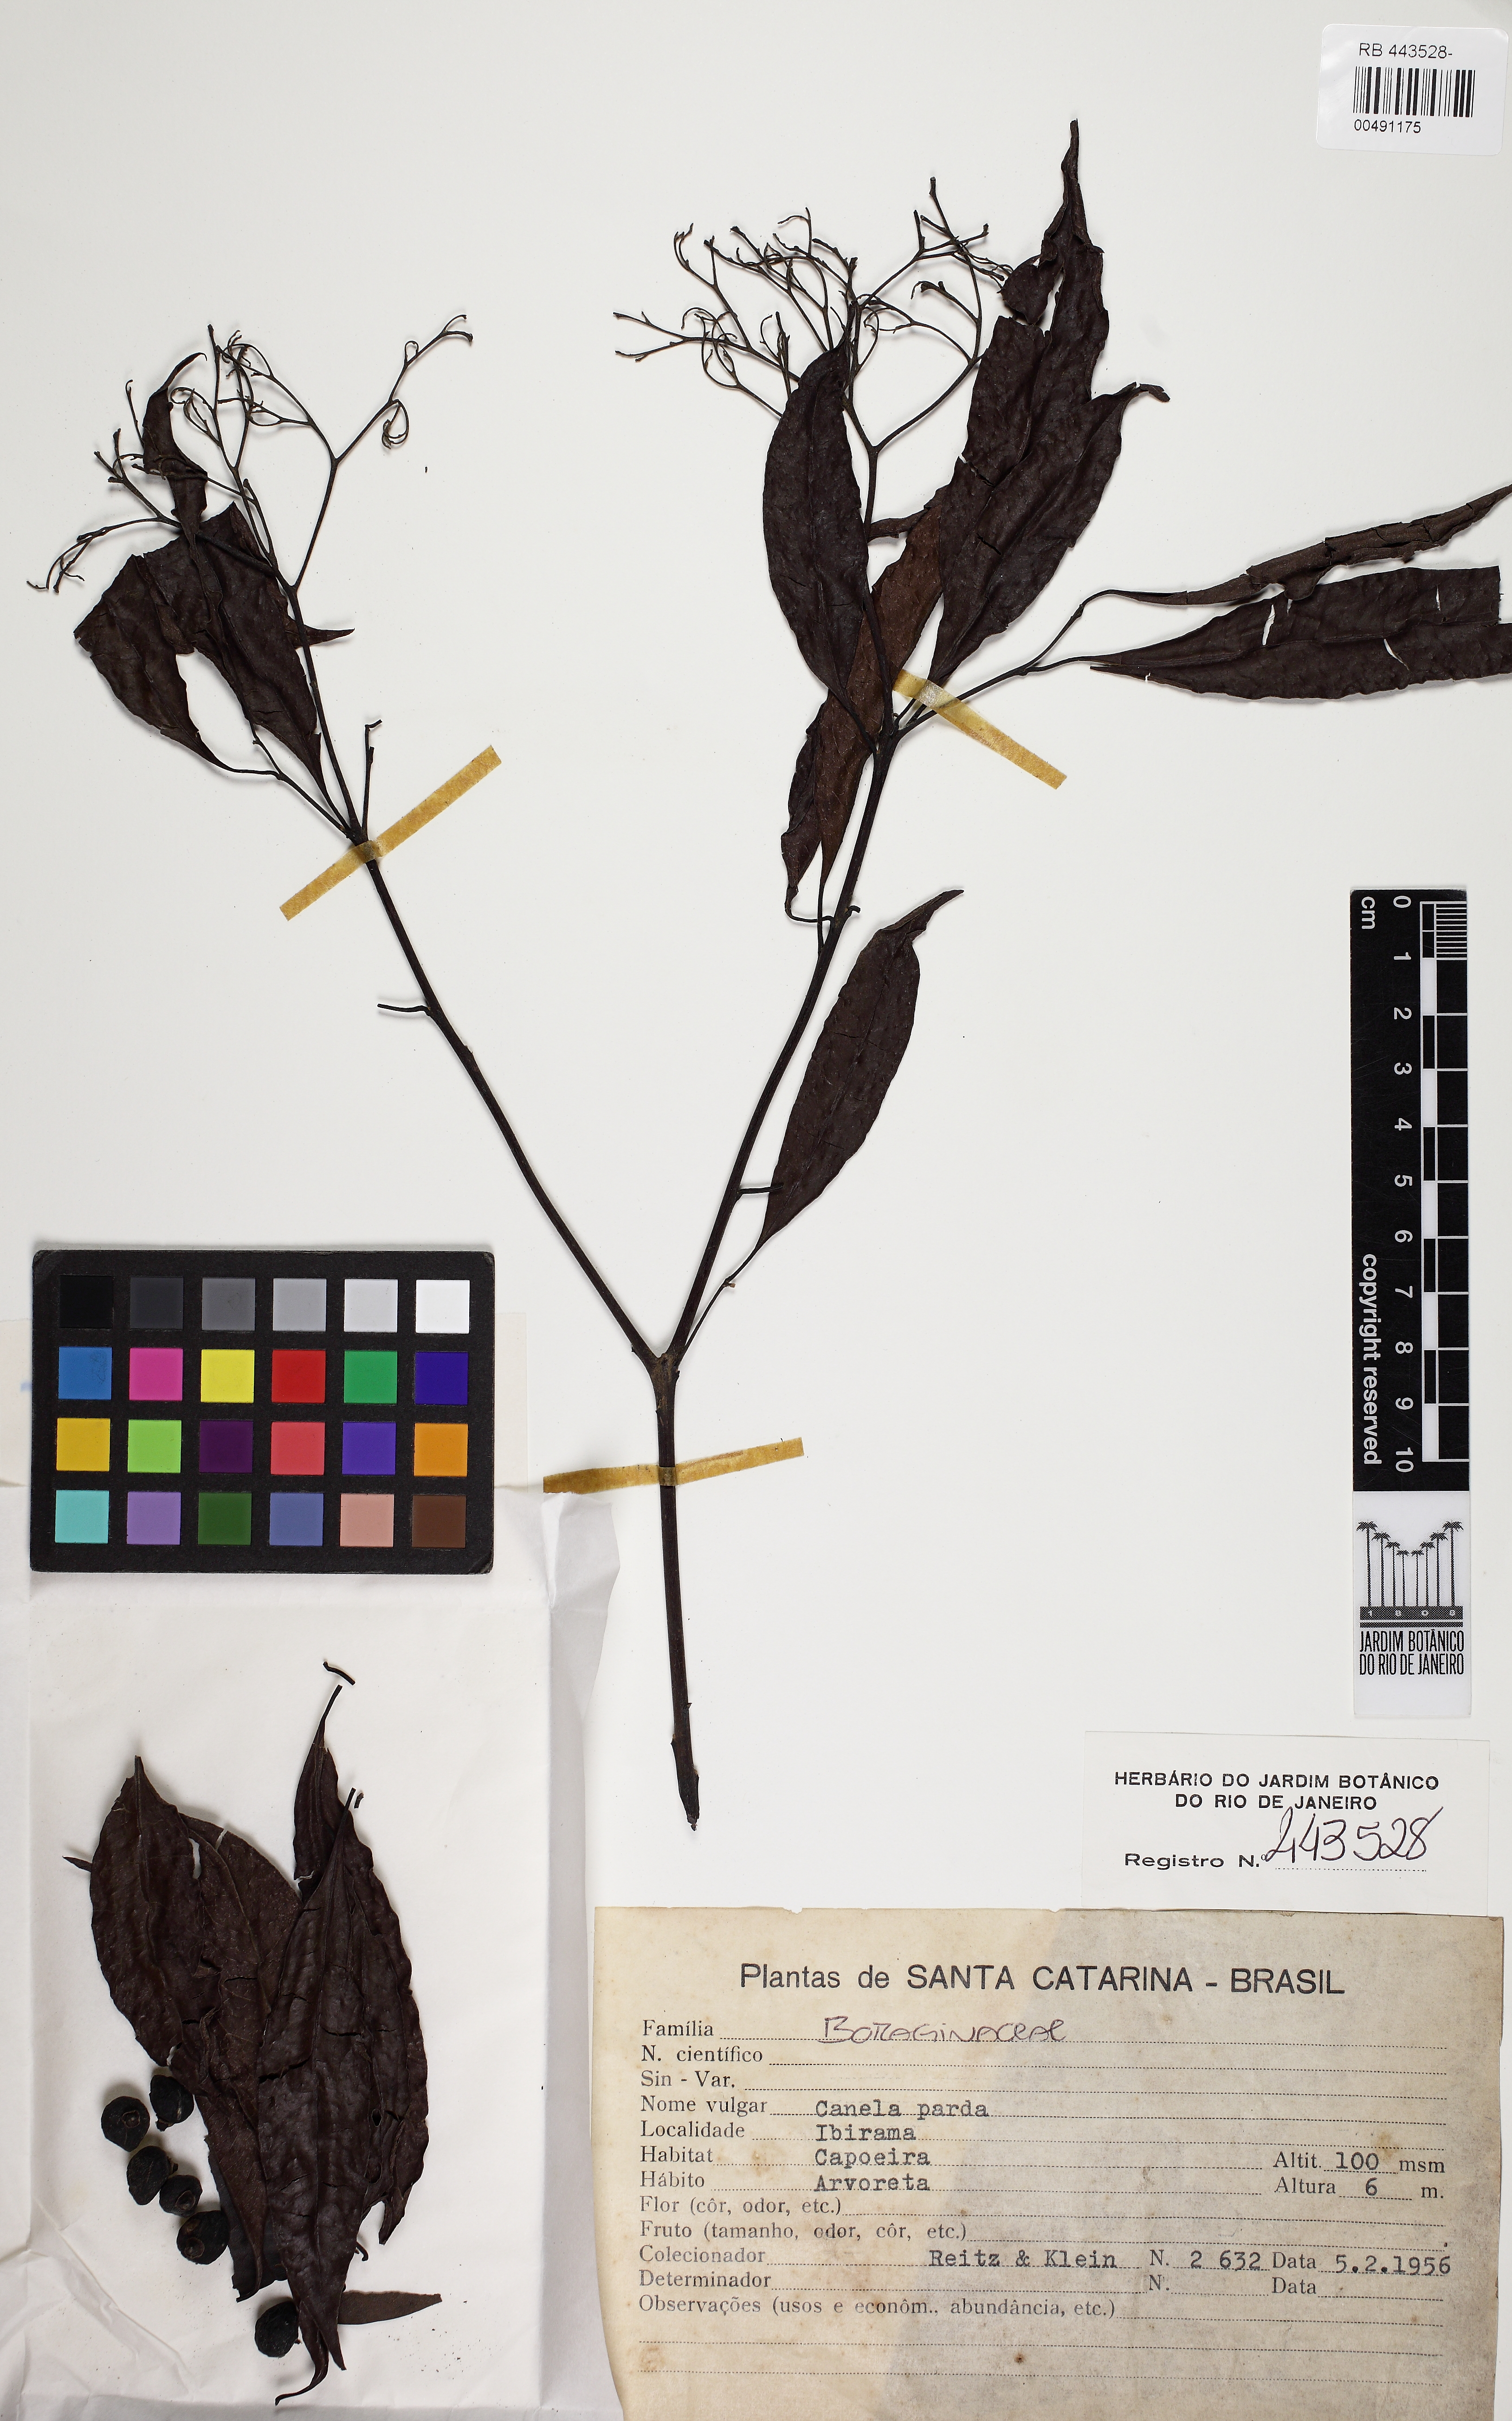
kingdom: Plantae
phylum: Tracheophyta
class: Magnoliopsida
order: Boraginales
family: Cordiaceae
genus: Cordia
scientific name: Cordia ecalyculata
